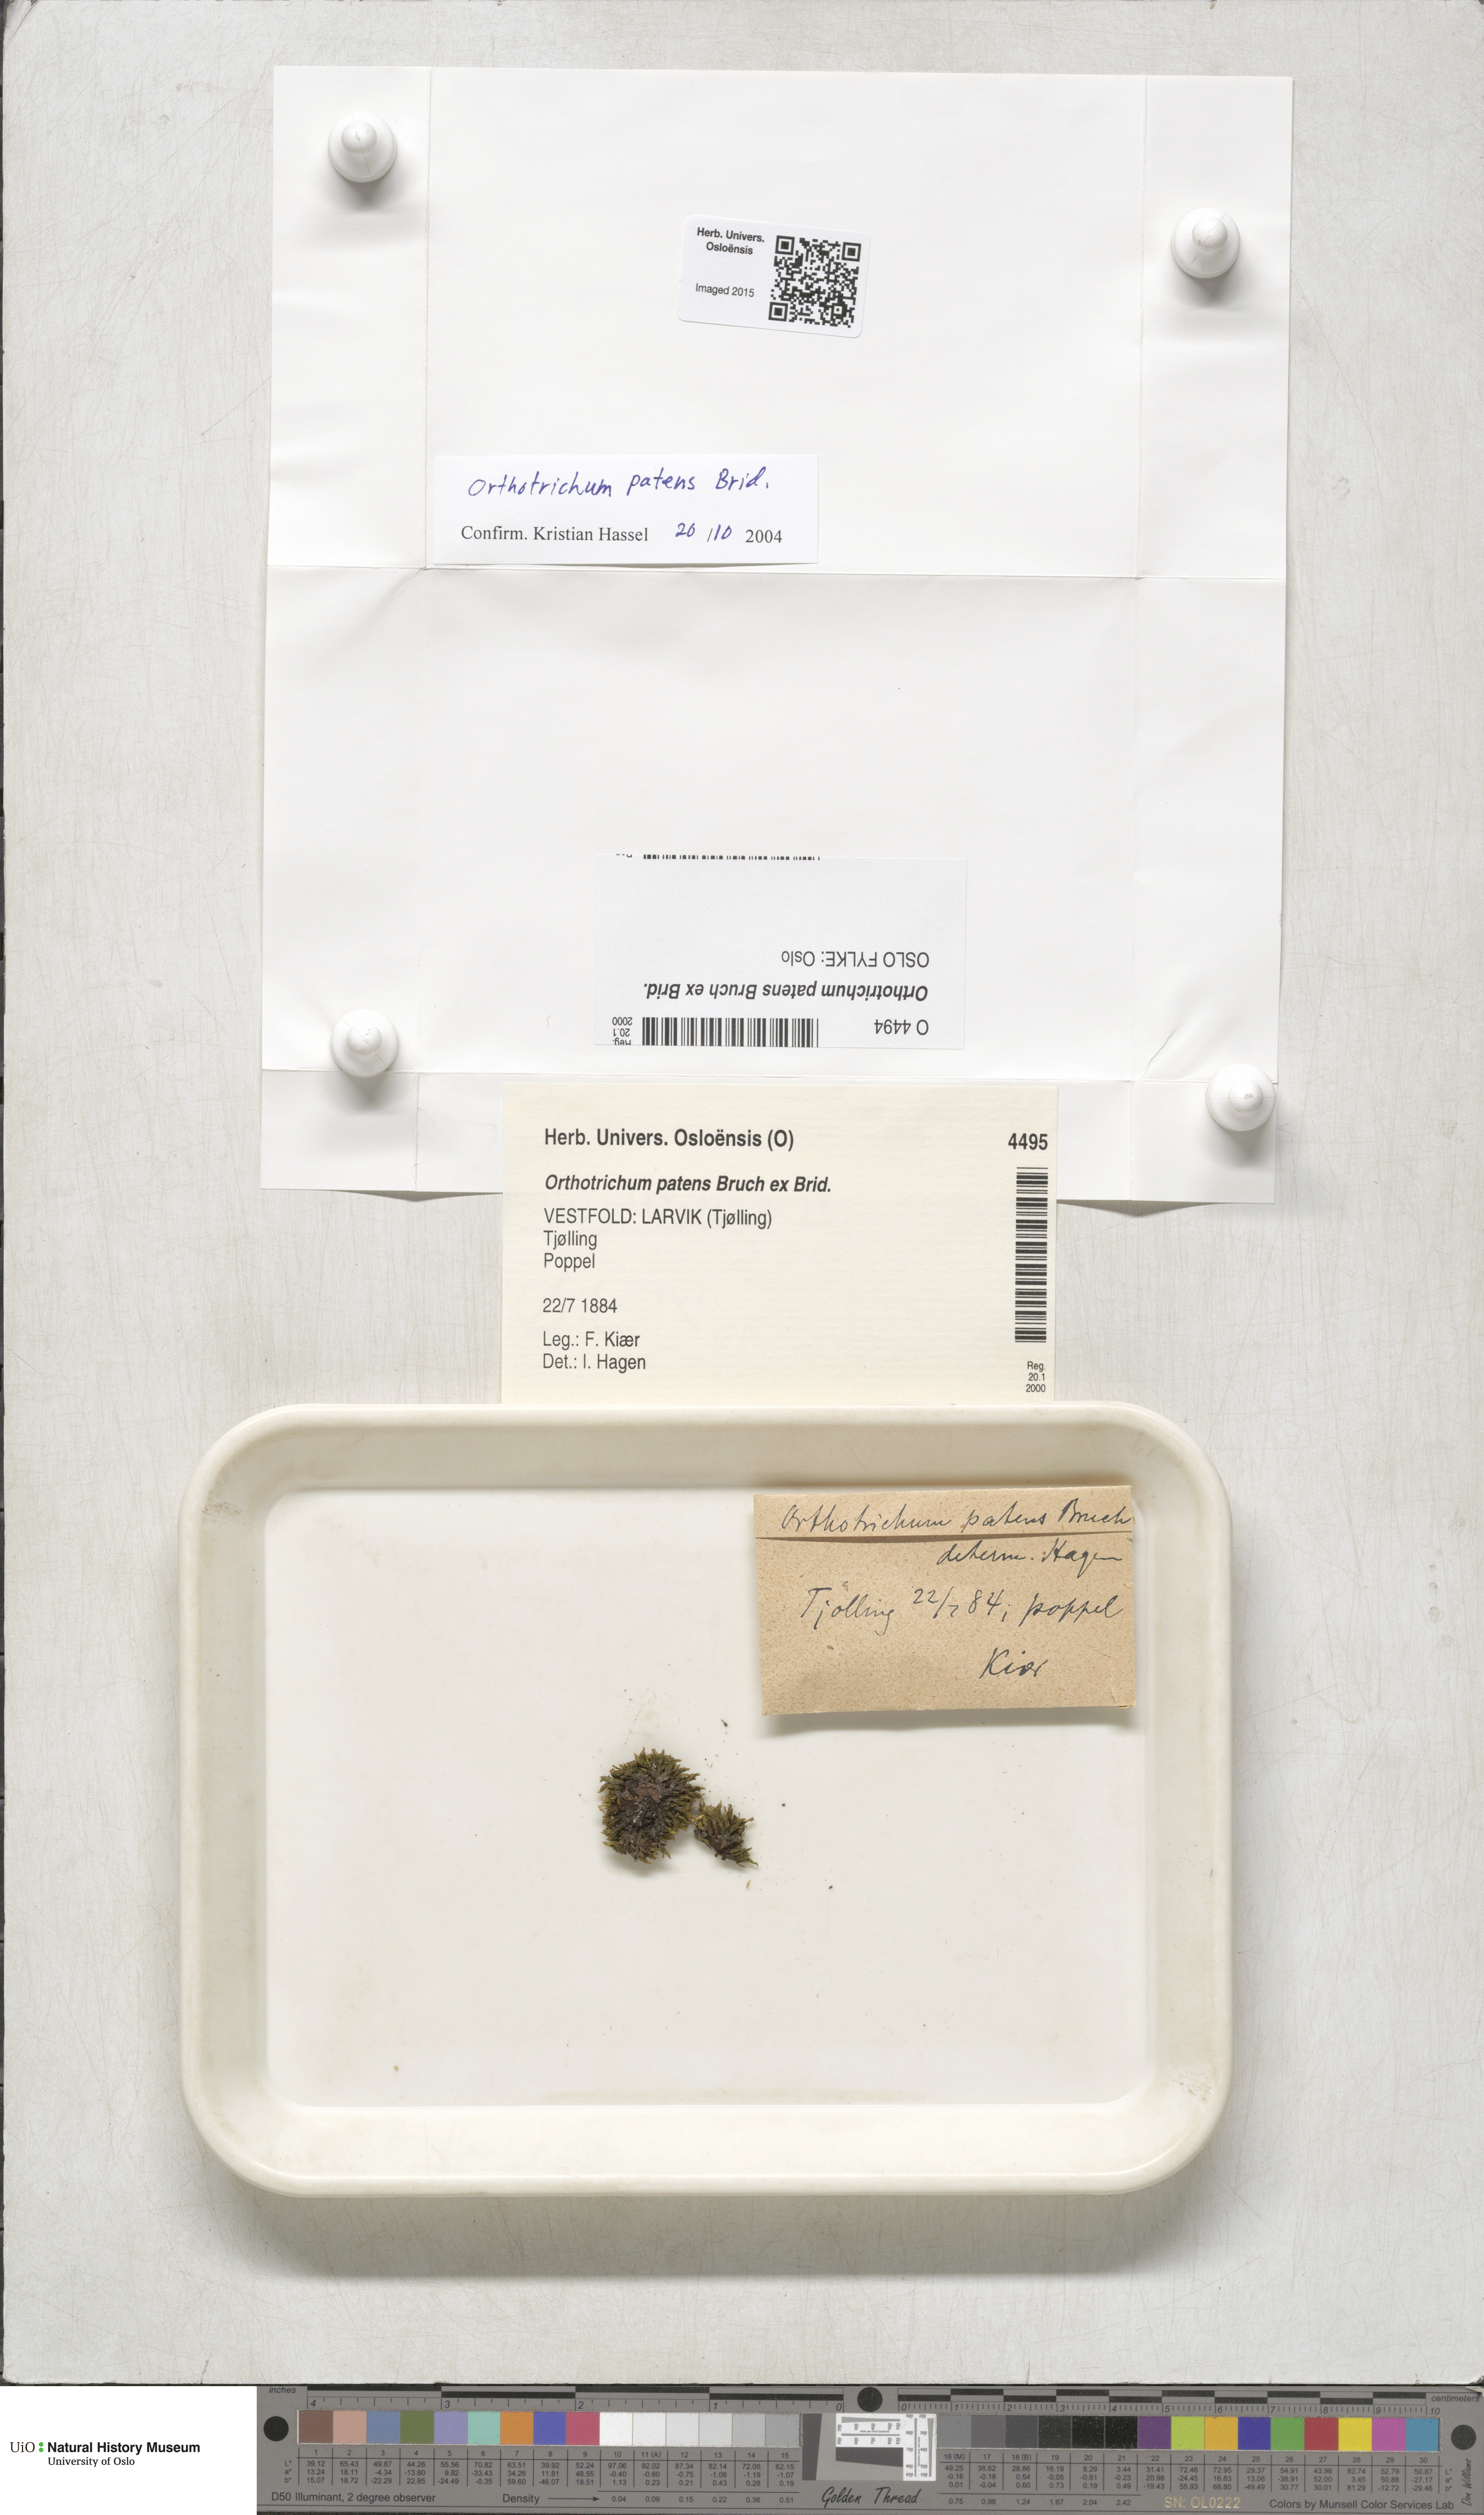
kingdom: Plantae
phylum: Bryophyta
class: Bryopsida
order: Orthotrichales
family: Orthotrichaceae
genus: Orthotrichum
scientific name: Orthotrichum patens
